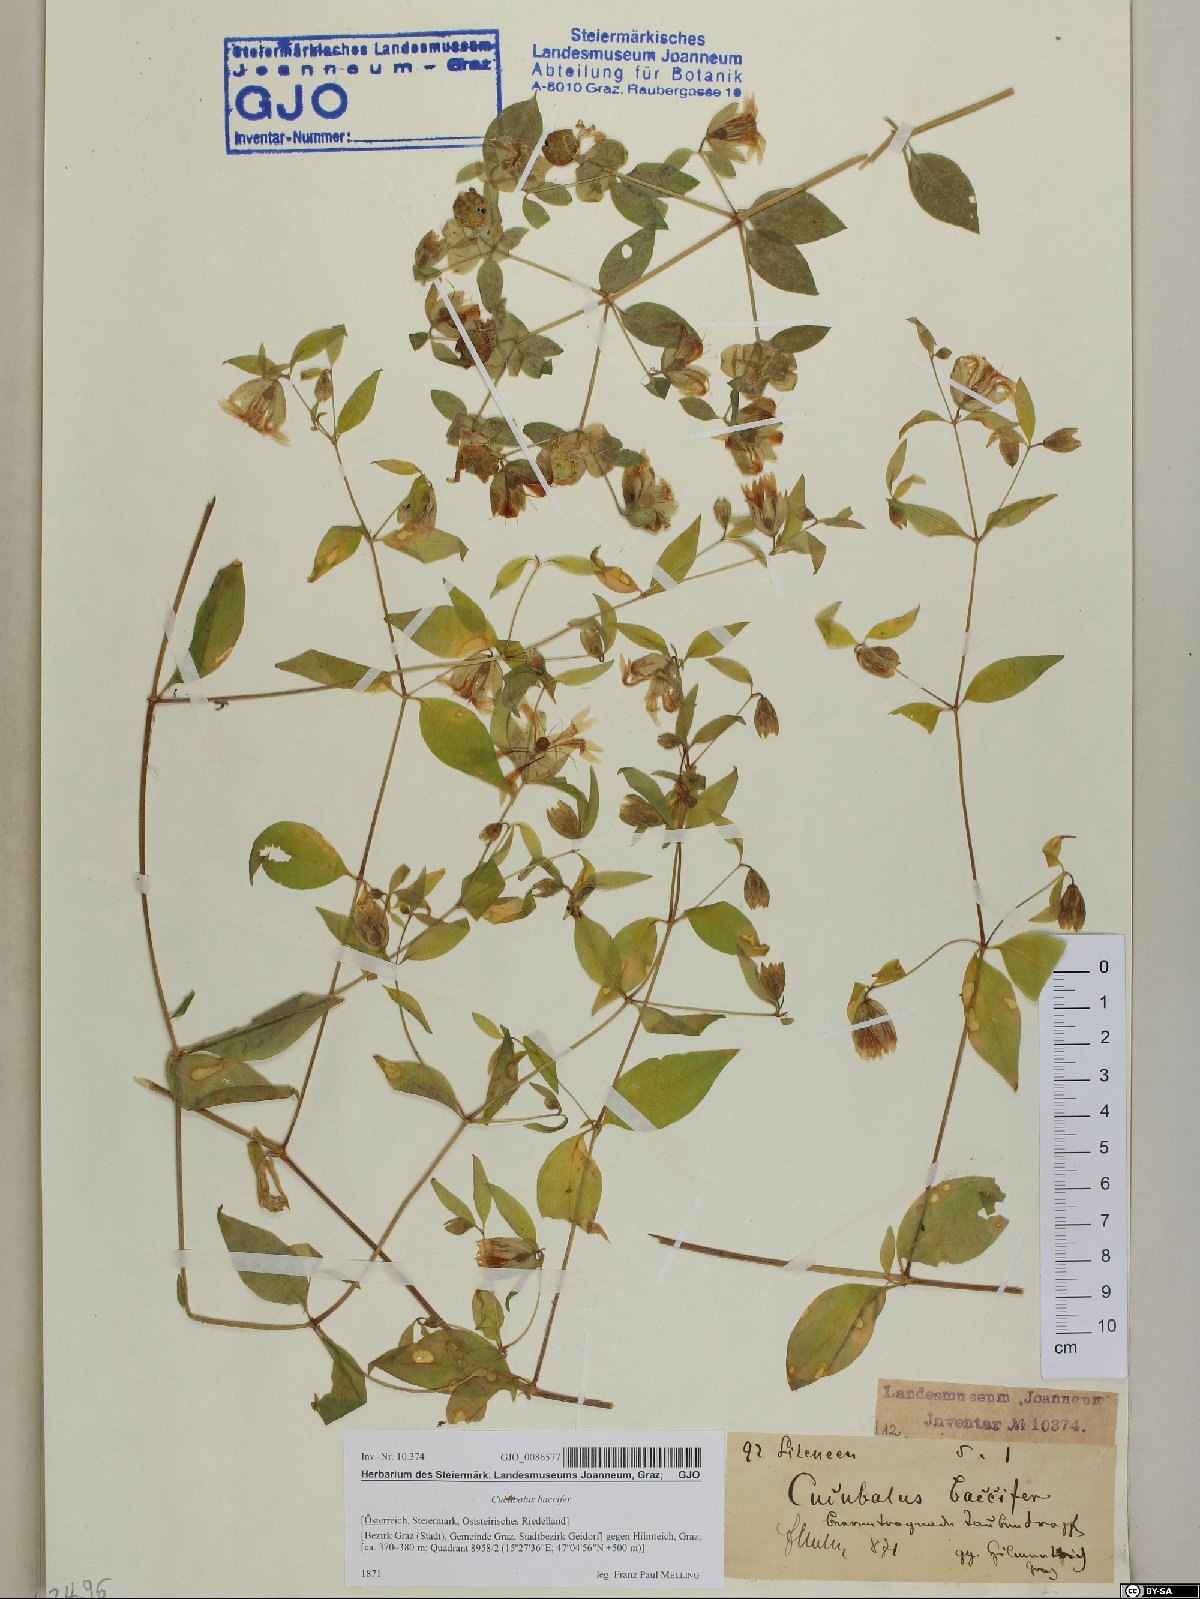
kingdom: Plantae
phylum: Tracheophyta
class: Magnoliopsida
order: Caryophyllales
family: Caryophyllaceae
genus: Silene
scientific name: Silene baccifera
